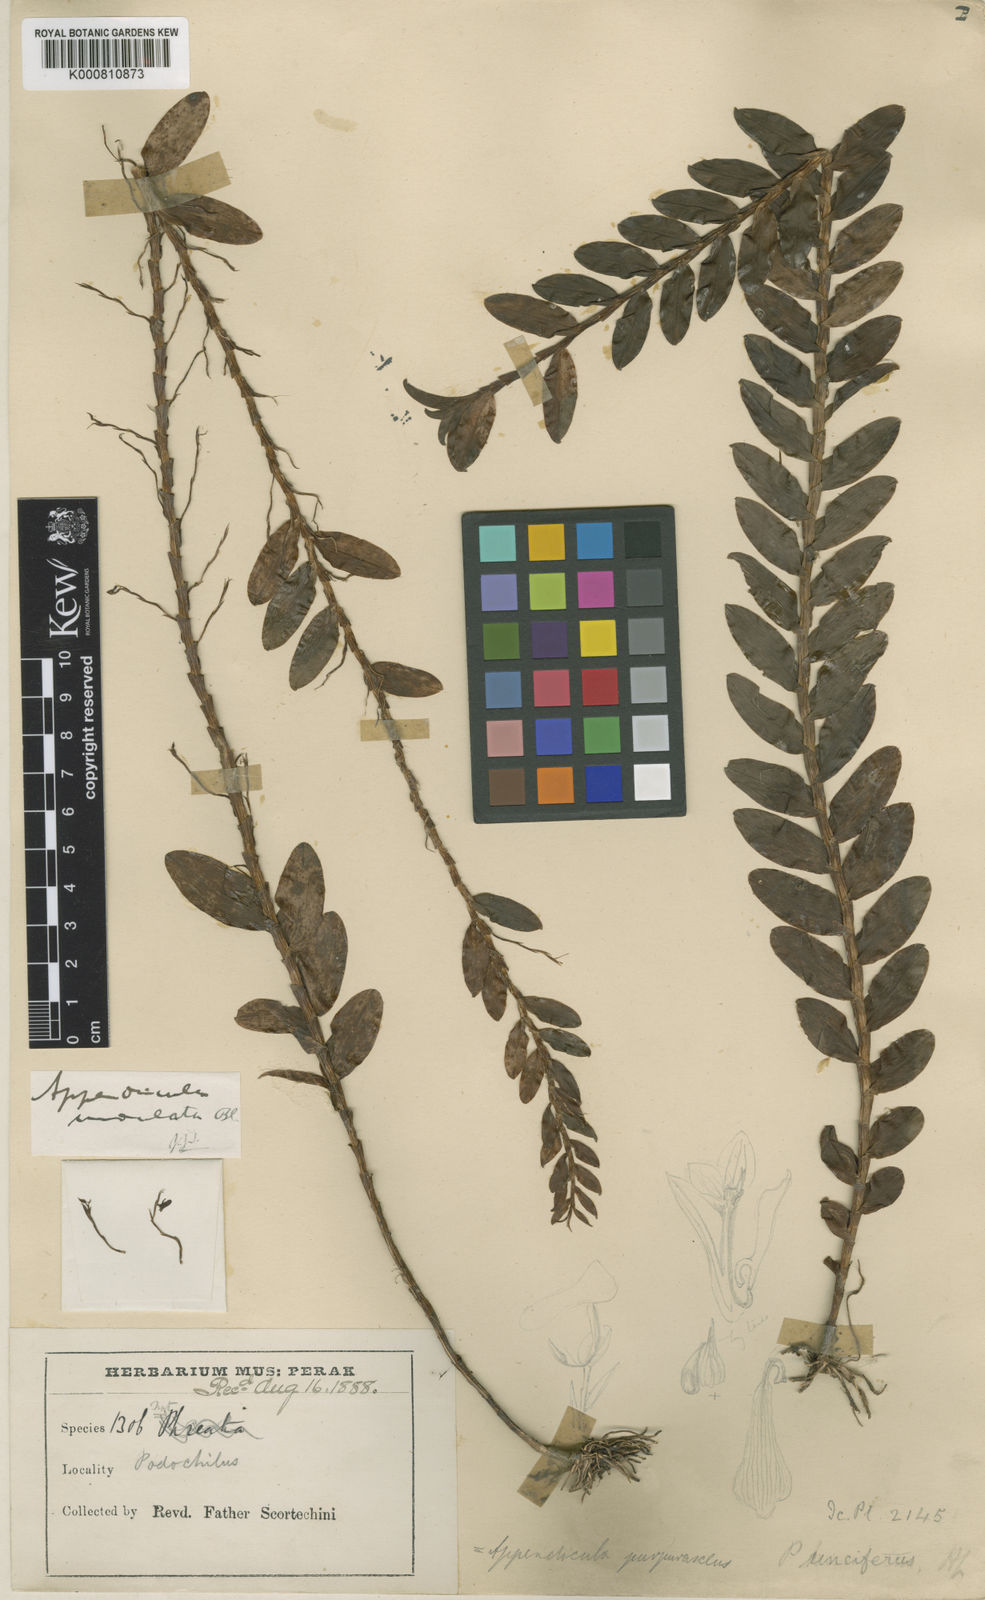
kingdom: Plantae
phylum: Tracheophyta
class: Liliopsida
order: Asparagales
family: Orchidaceae
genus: Appendicula
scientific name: Appendicula undulata
